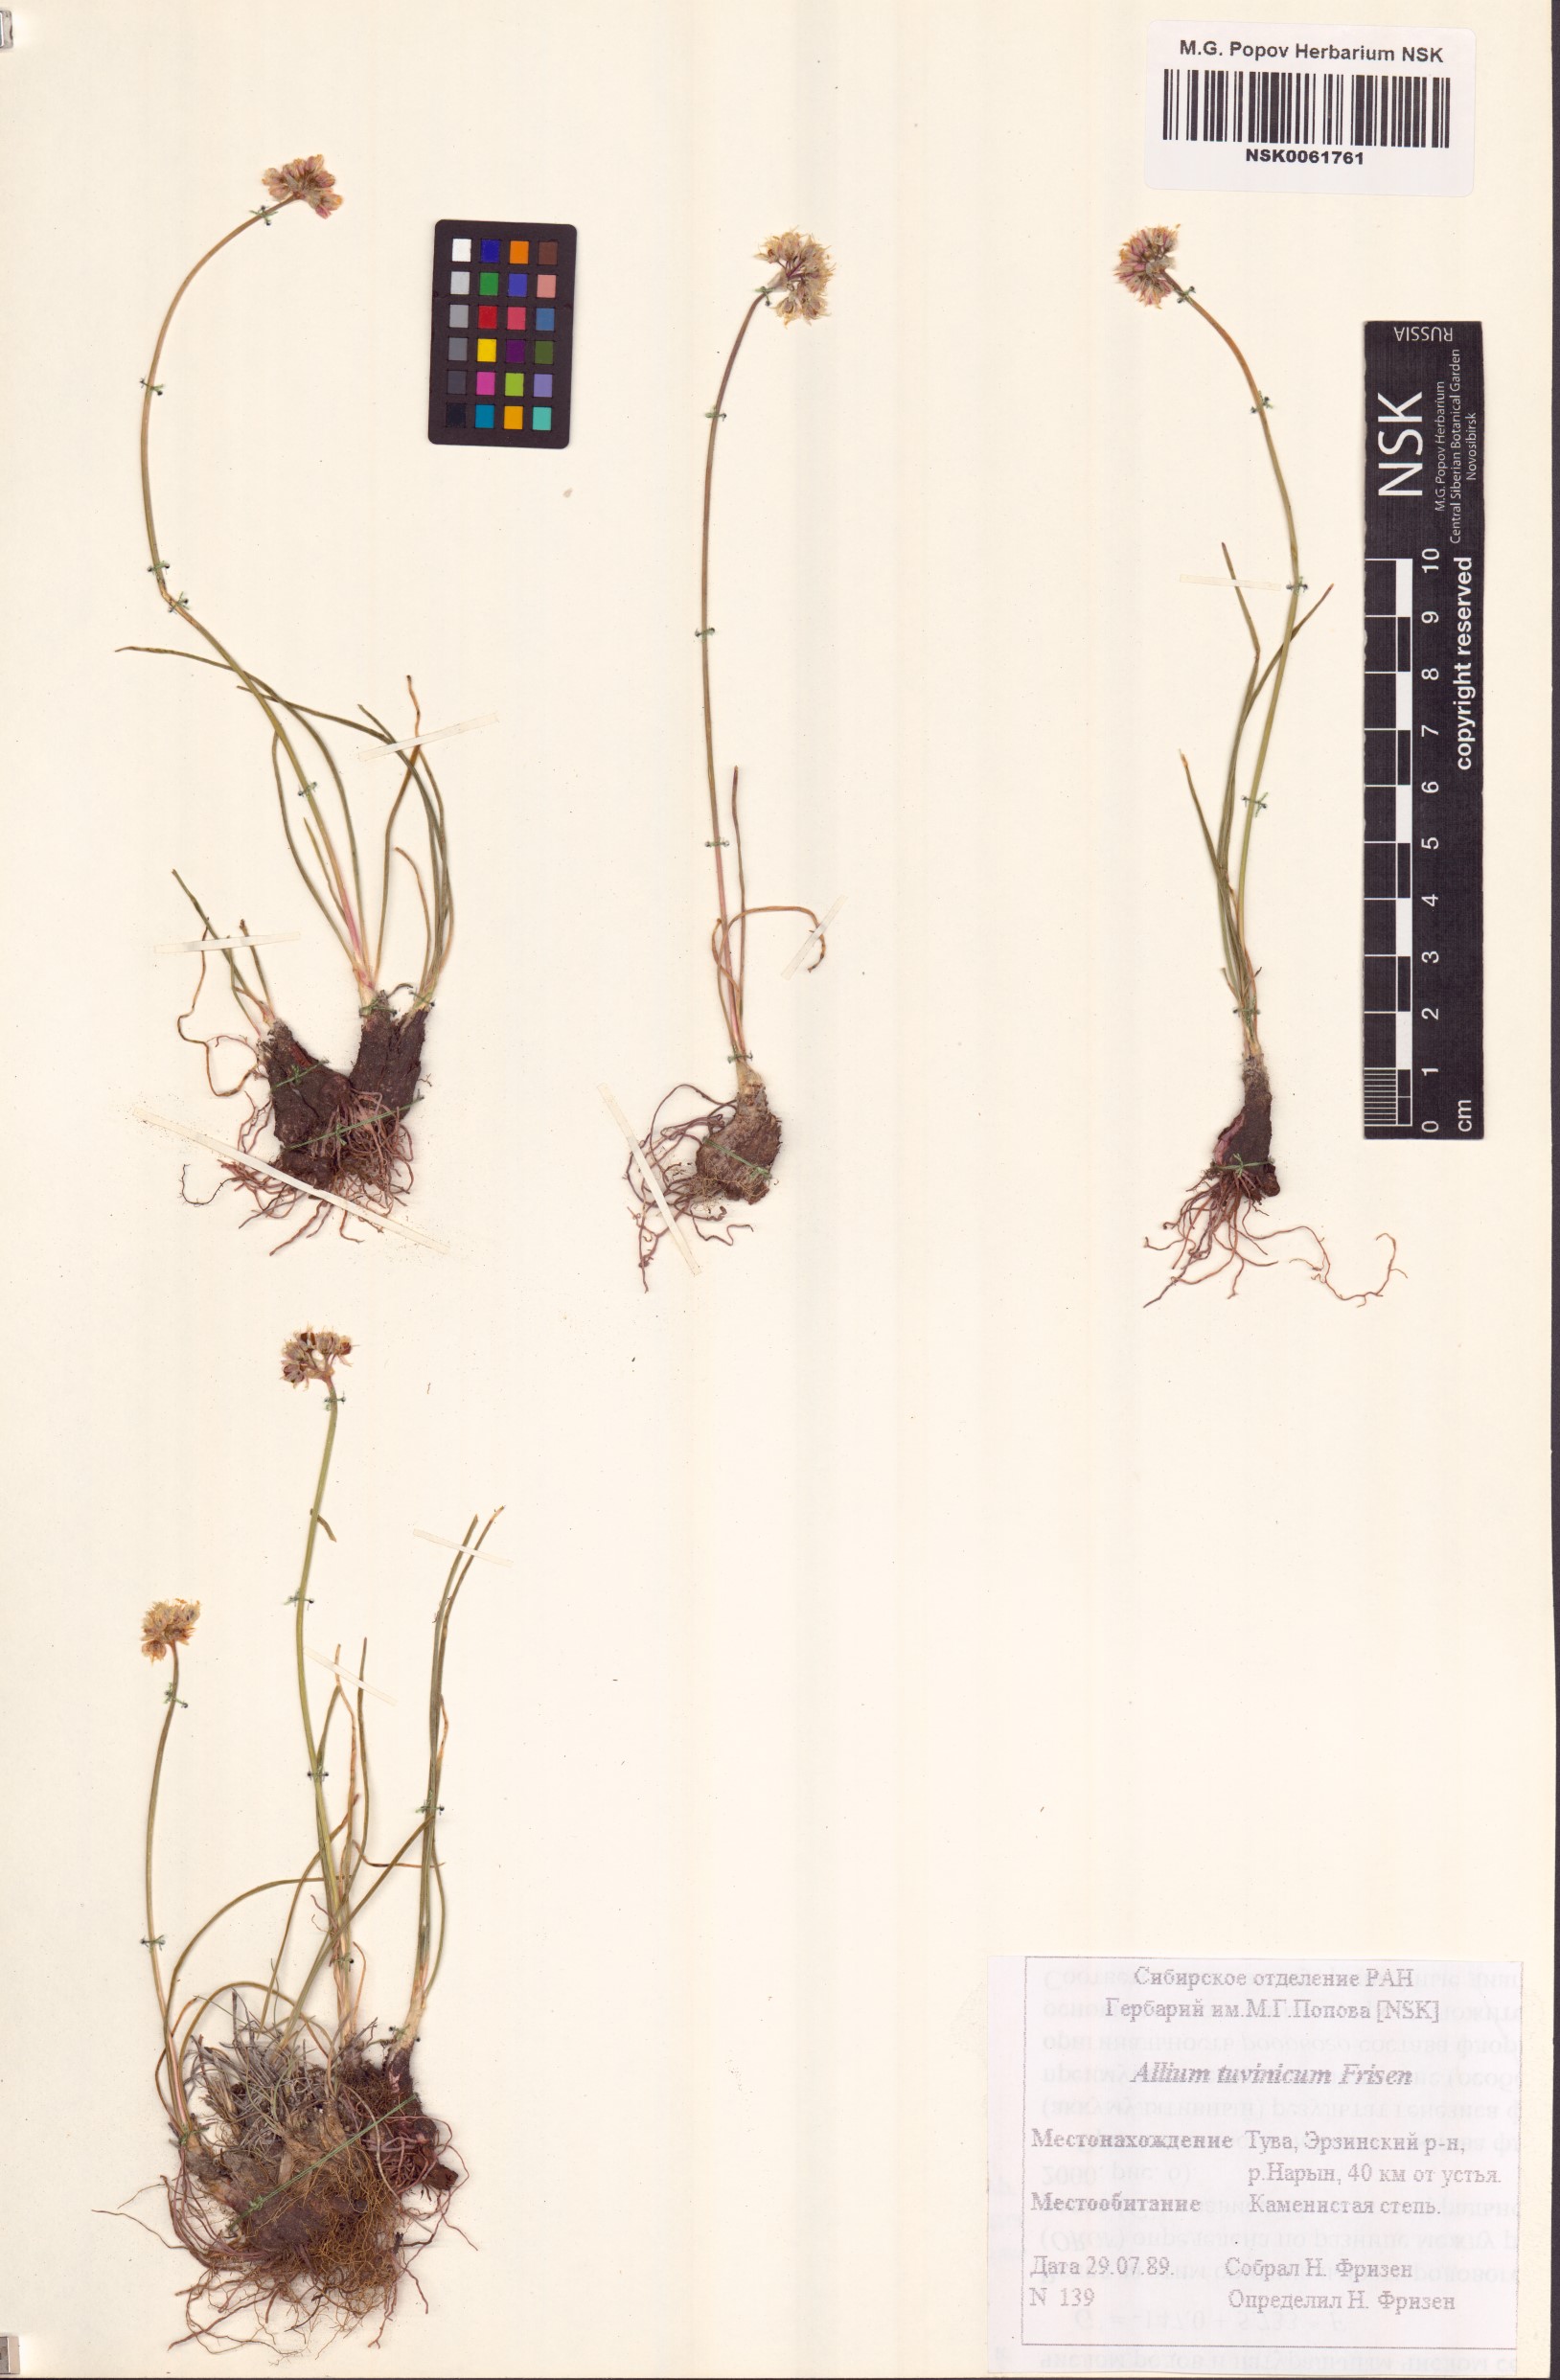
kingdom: Plantae
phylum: Tracheophyta
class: Liliopsida
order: Asparagales
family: Amaryllidaceae
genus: Allium
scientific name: Allium tuvinicum
